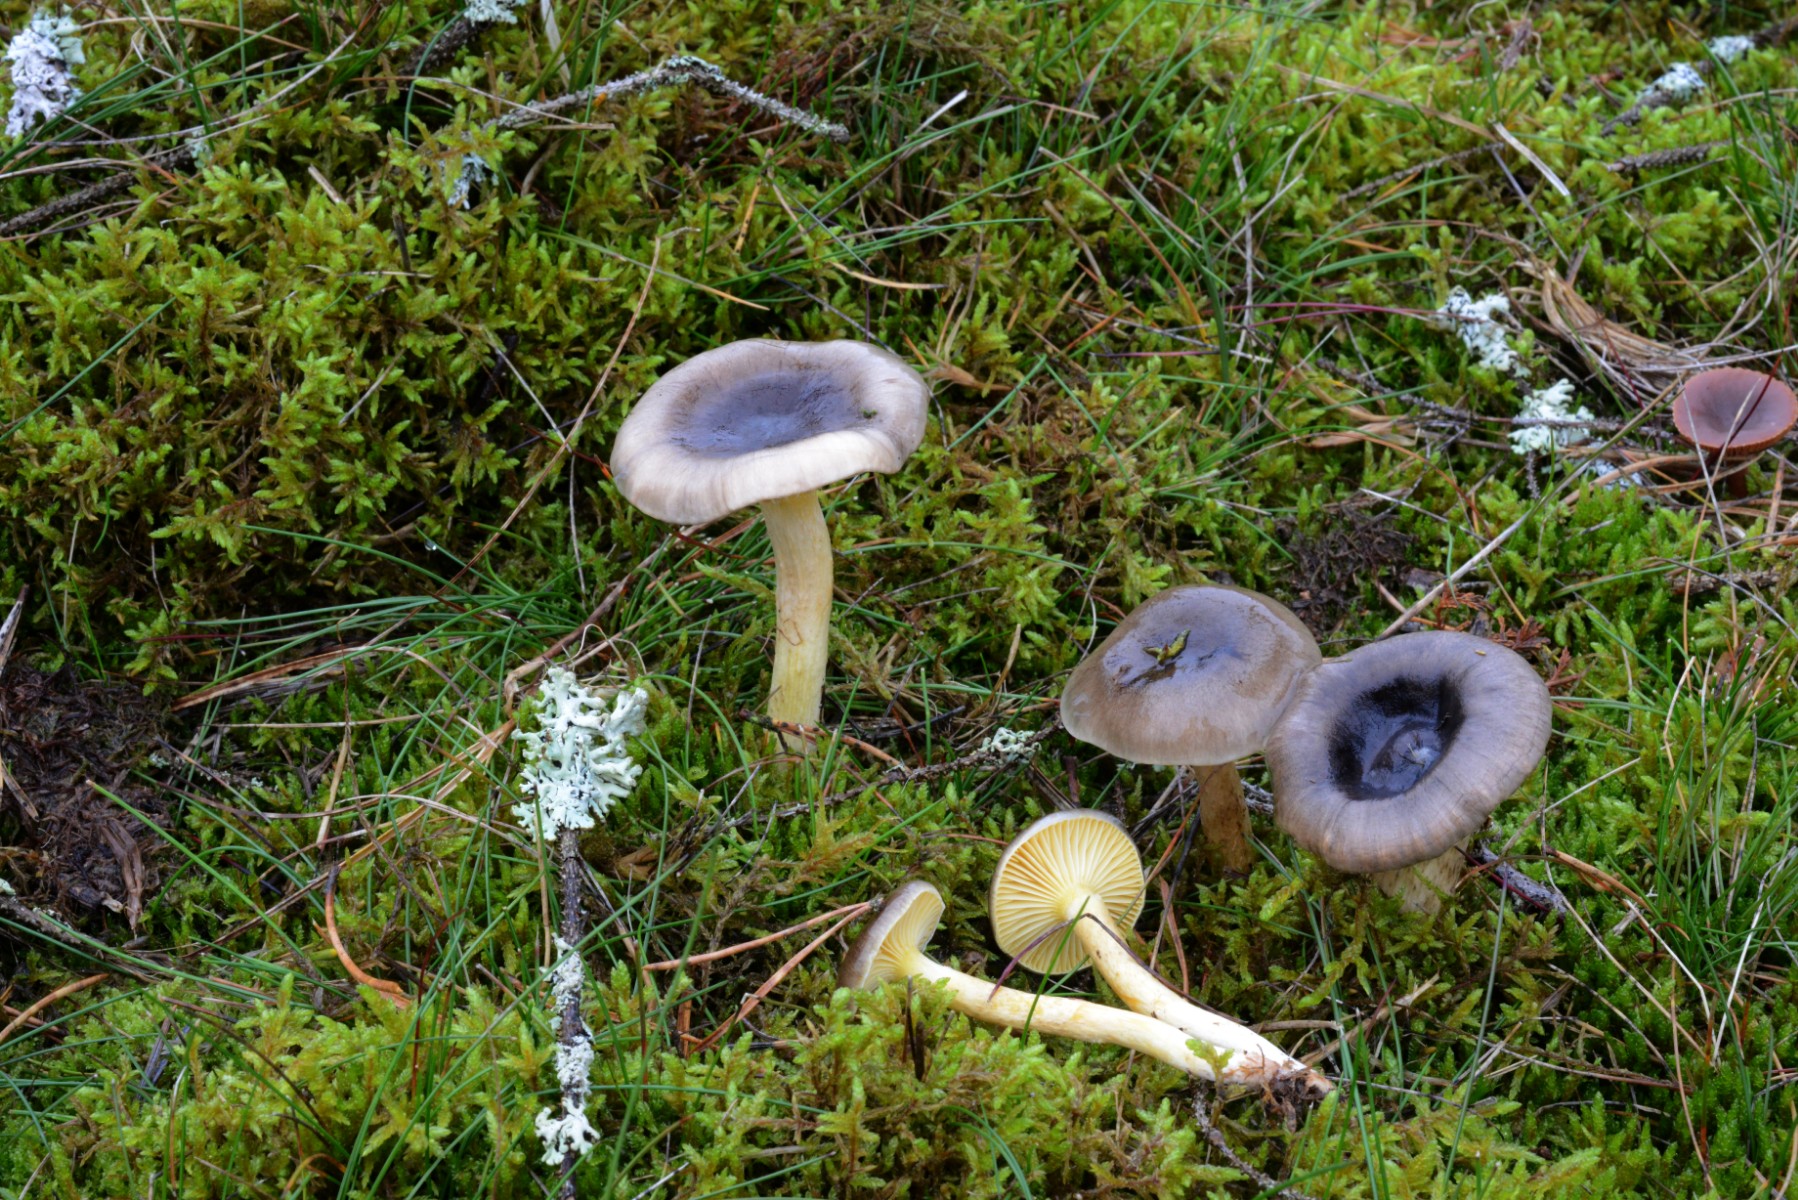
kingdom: Fungi
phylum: Basidiomycota
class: Agaricomycetes
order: Agaricales
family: Hygrophoraceae
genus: Hygrophorus
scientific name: Hygrophorus hypothejus
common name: frost-sneglehat
